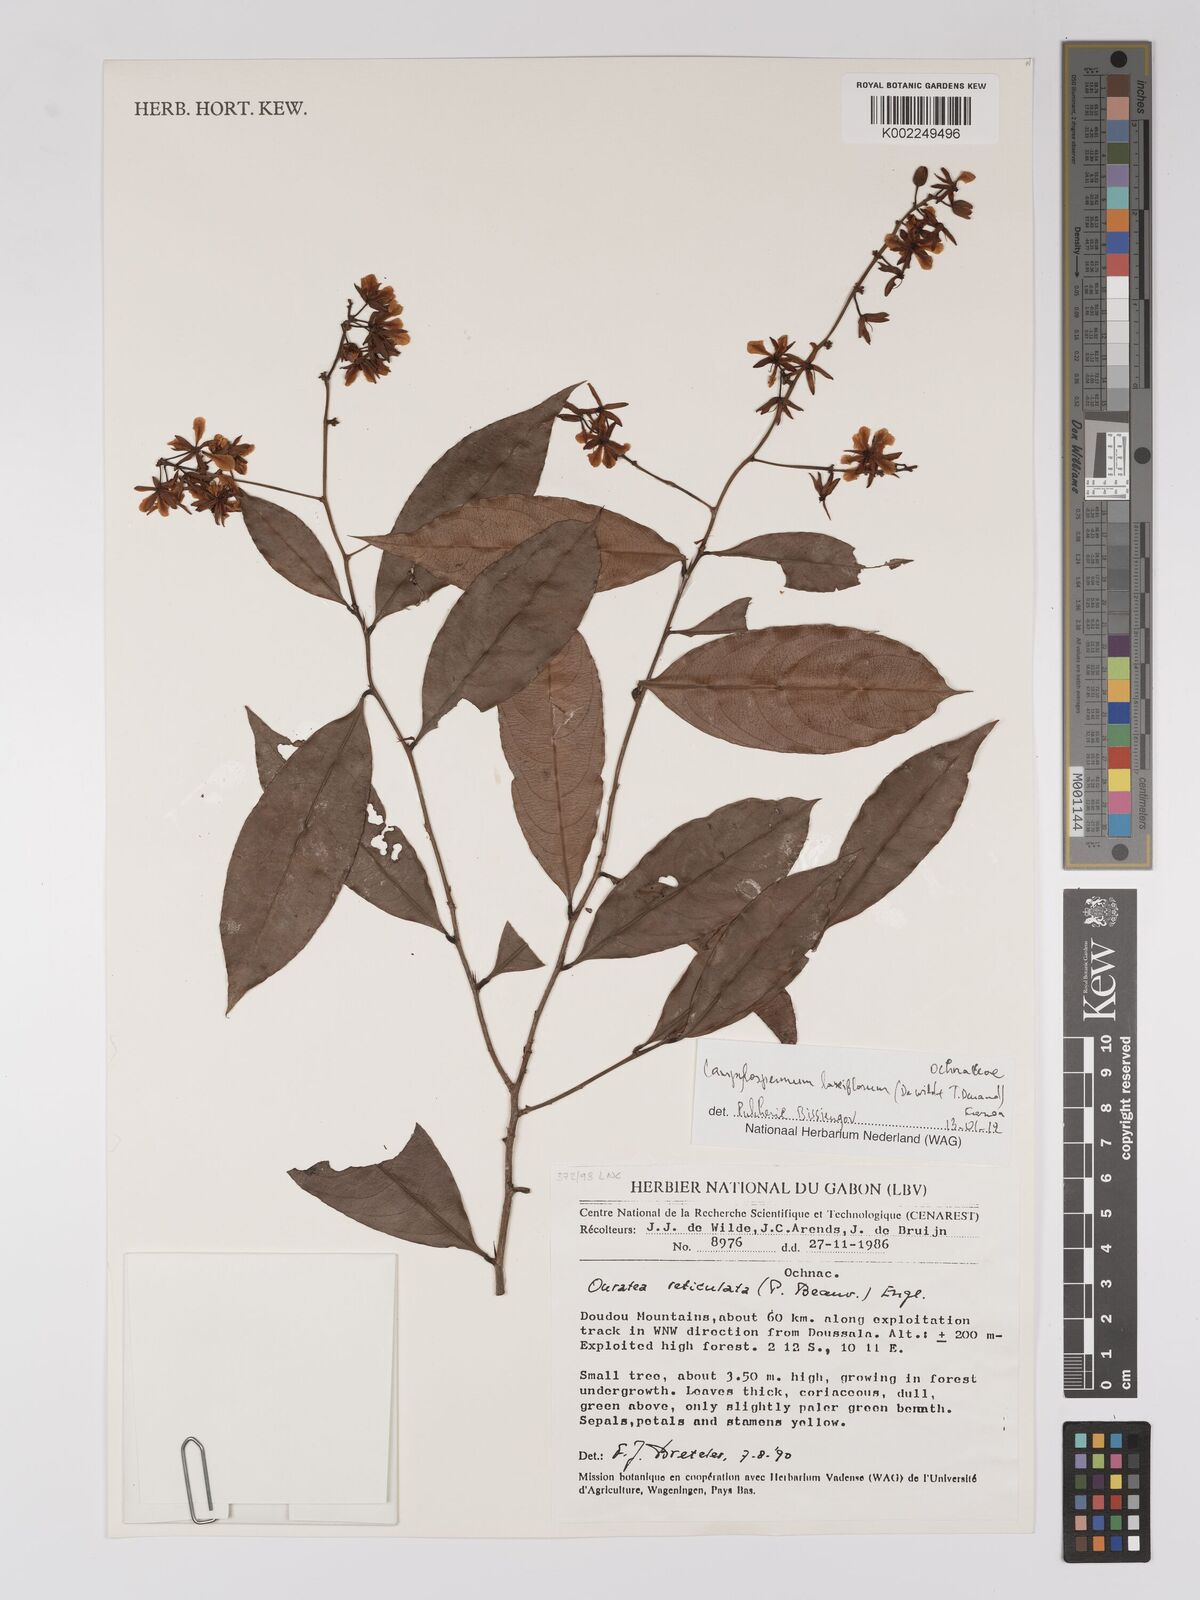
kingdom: Plantae
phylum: Tracheophyta
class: Magnoliopsida
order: Malpighiales
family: Ochnaceae
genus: Campylospermum
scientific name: Campylospermum laxiflorum
